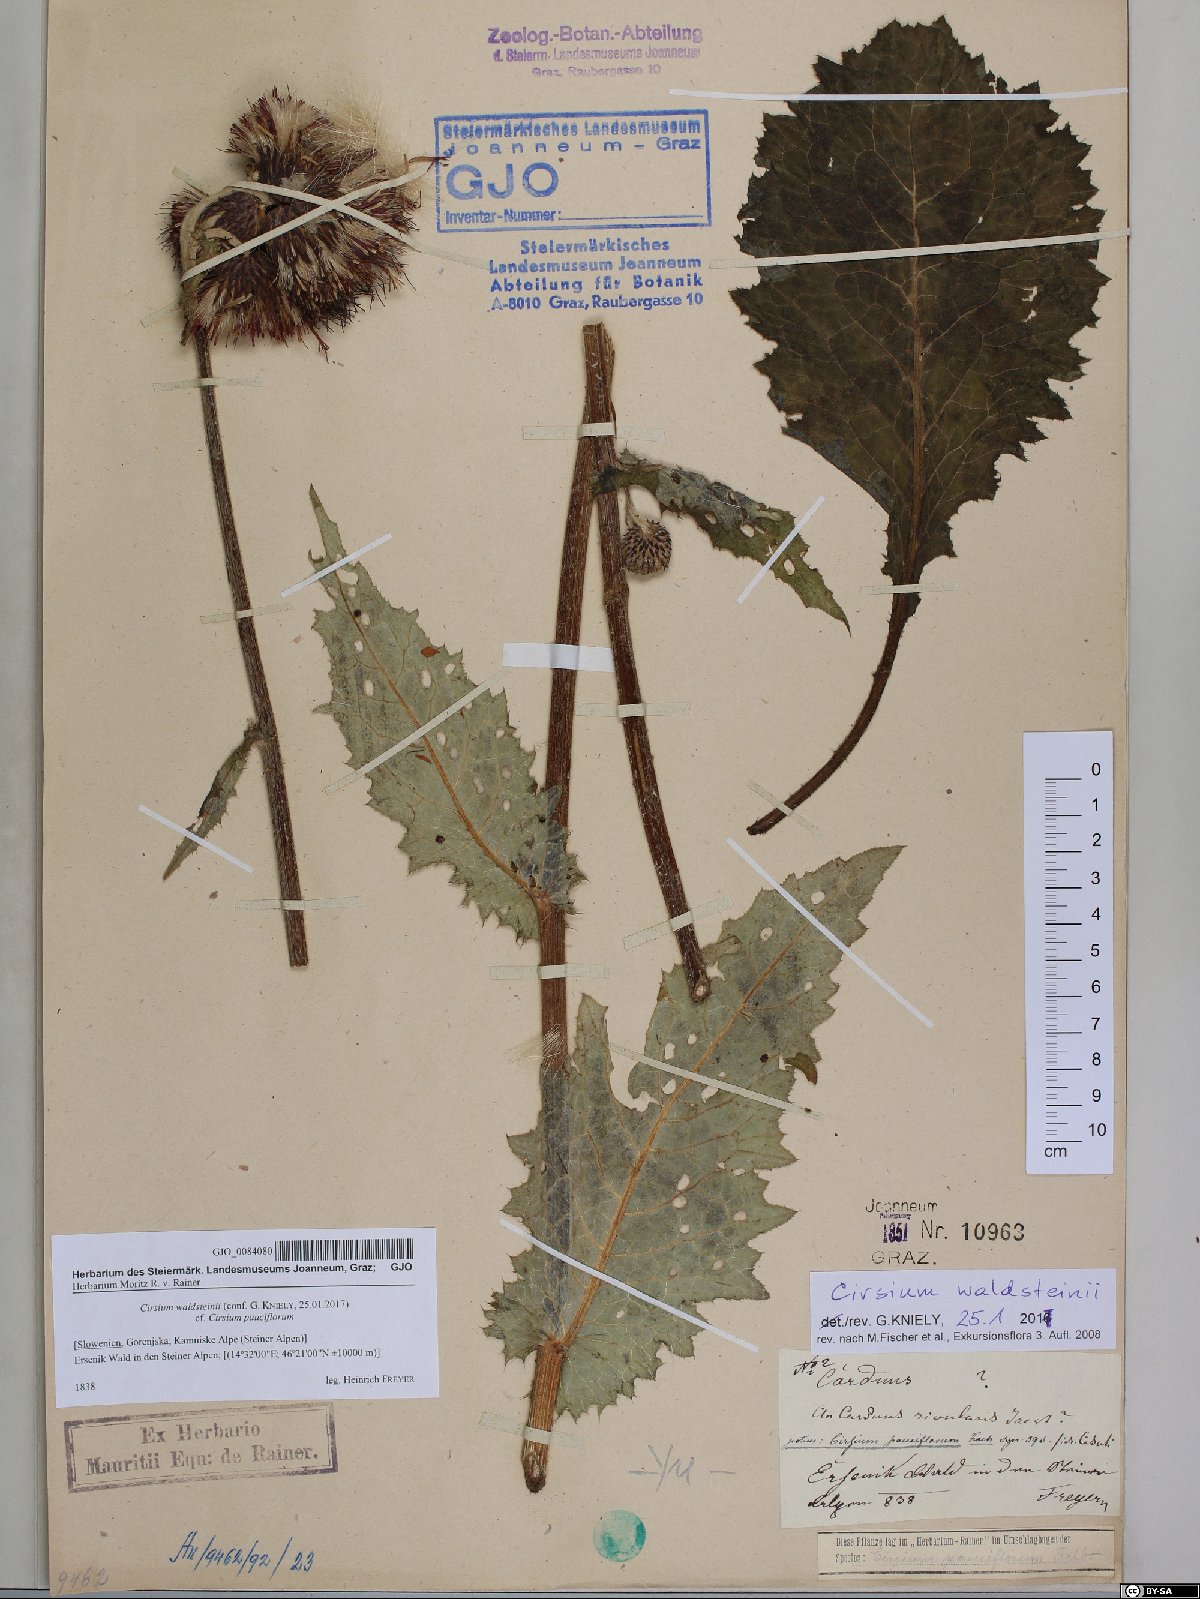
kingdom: Plantae
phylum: Tracheophyta
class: Magnoliopsida
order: Asterales
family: Asteraceae
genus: Cirsium
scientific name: Cirsium greimleri
